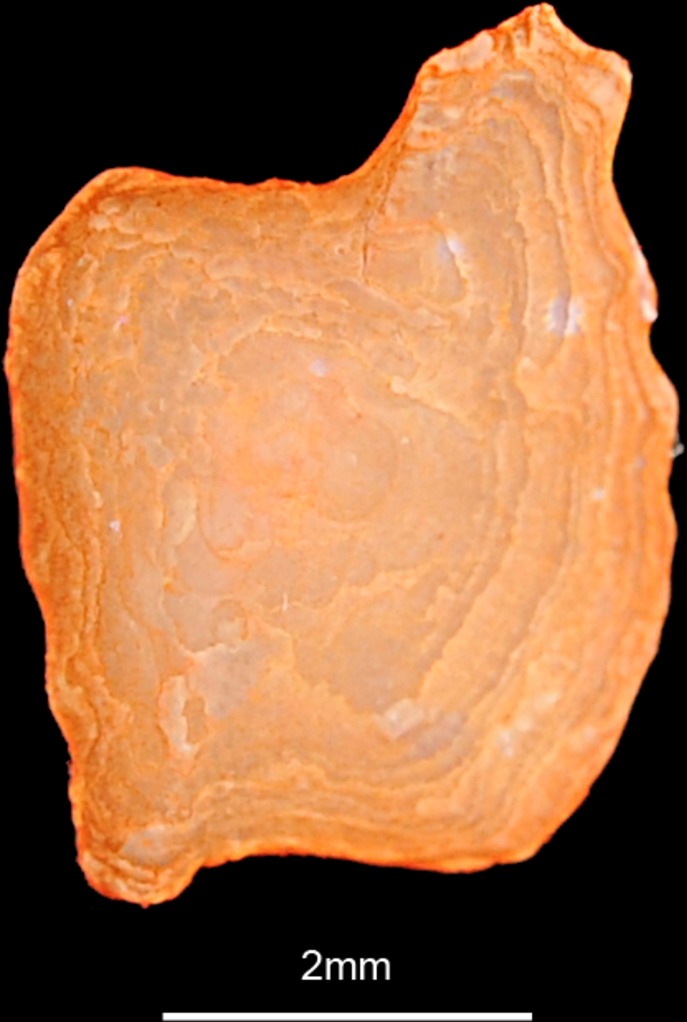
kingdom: Animalia
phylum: Chordata
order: Perciformes
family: Gobiidae
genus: Gobius
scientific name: Gobius cruentatus
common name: Red-mouthed goby
